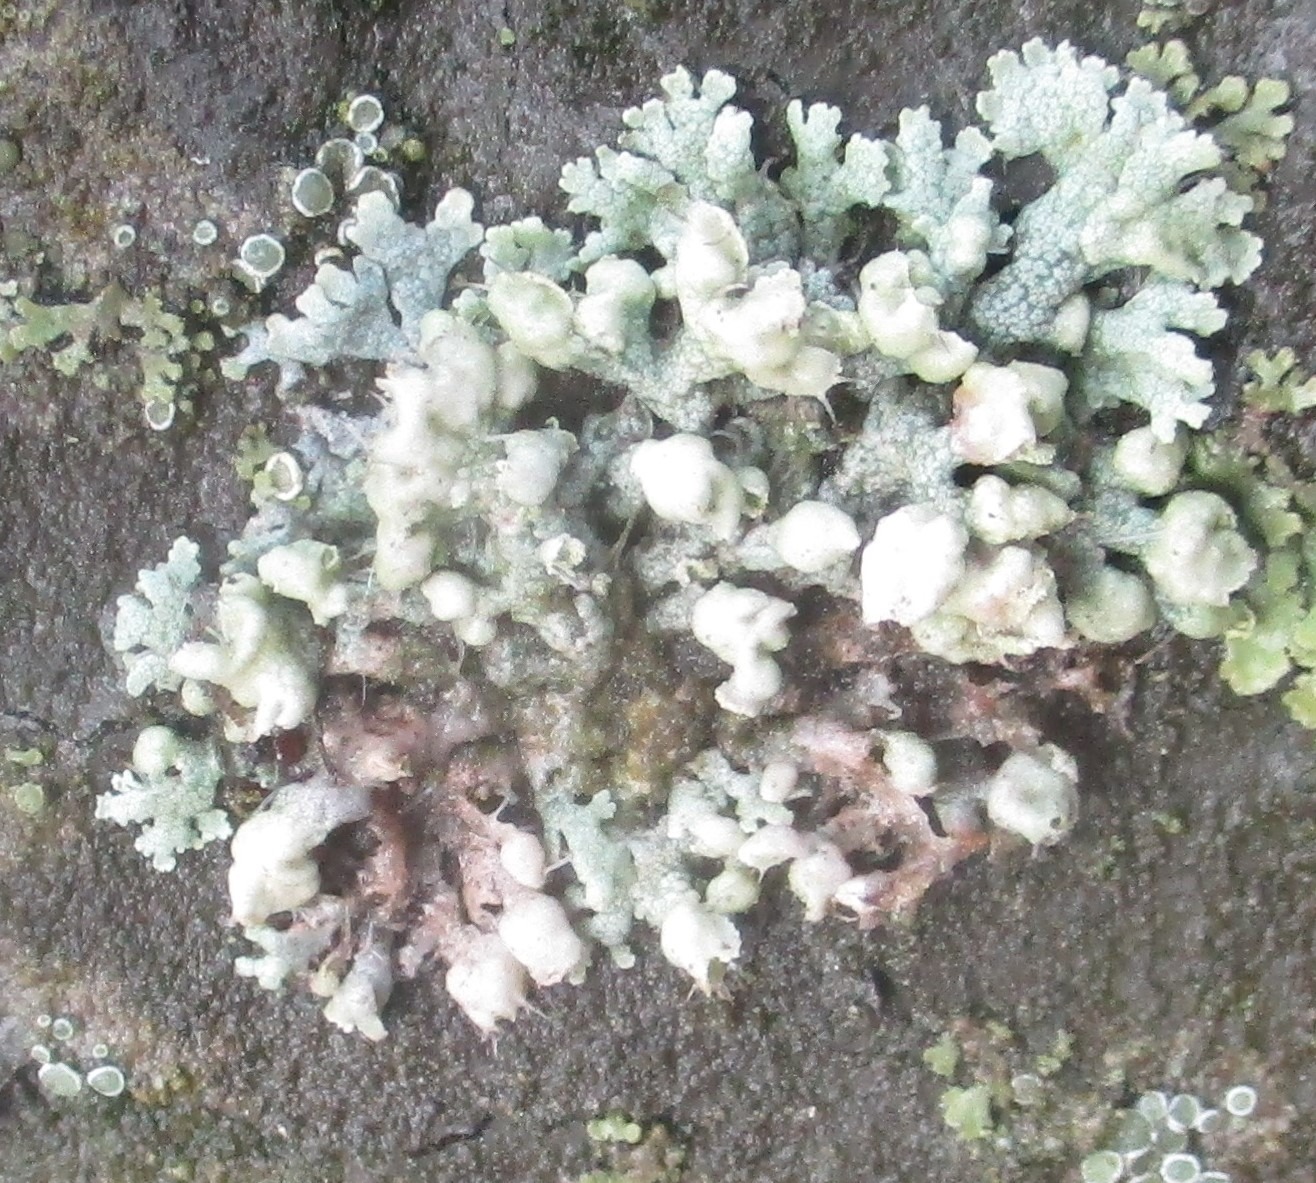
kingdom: Fungi
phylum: Ascomycota
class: Lecanoromycetes
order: Caliciales
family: Physciaceae
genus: Physcia
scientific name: Physcia adscendens
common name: Hætte-rosetlav
